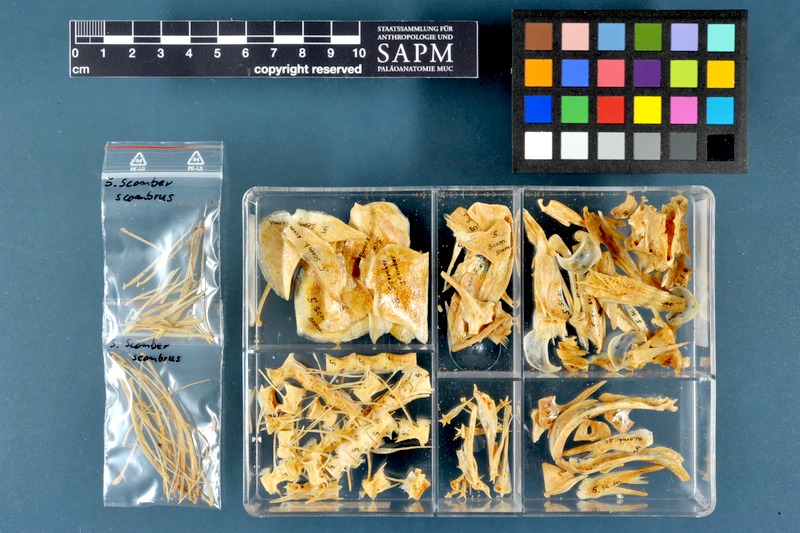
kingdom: Animalia
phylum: Chordata
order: Perciformes
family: Scombridae
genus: Scomber
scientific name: Scomber scombrus
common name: Mackerel
